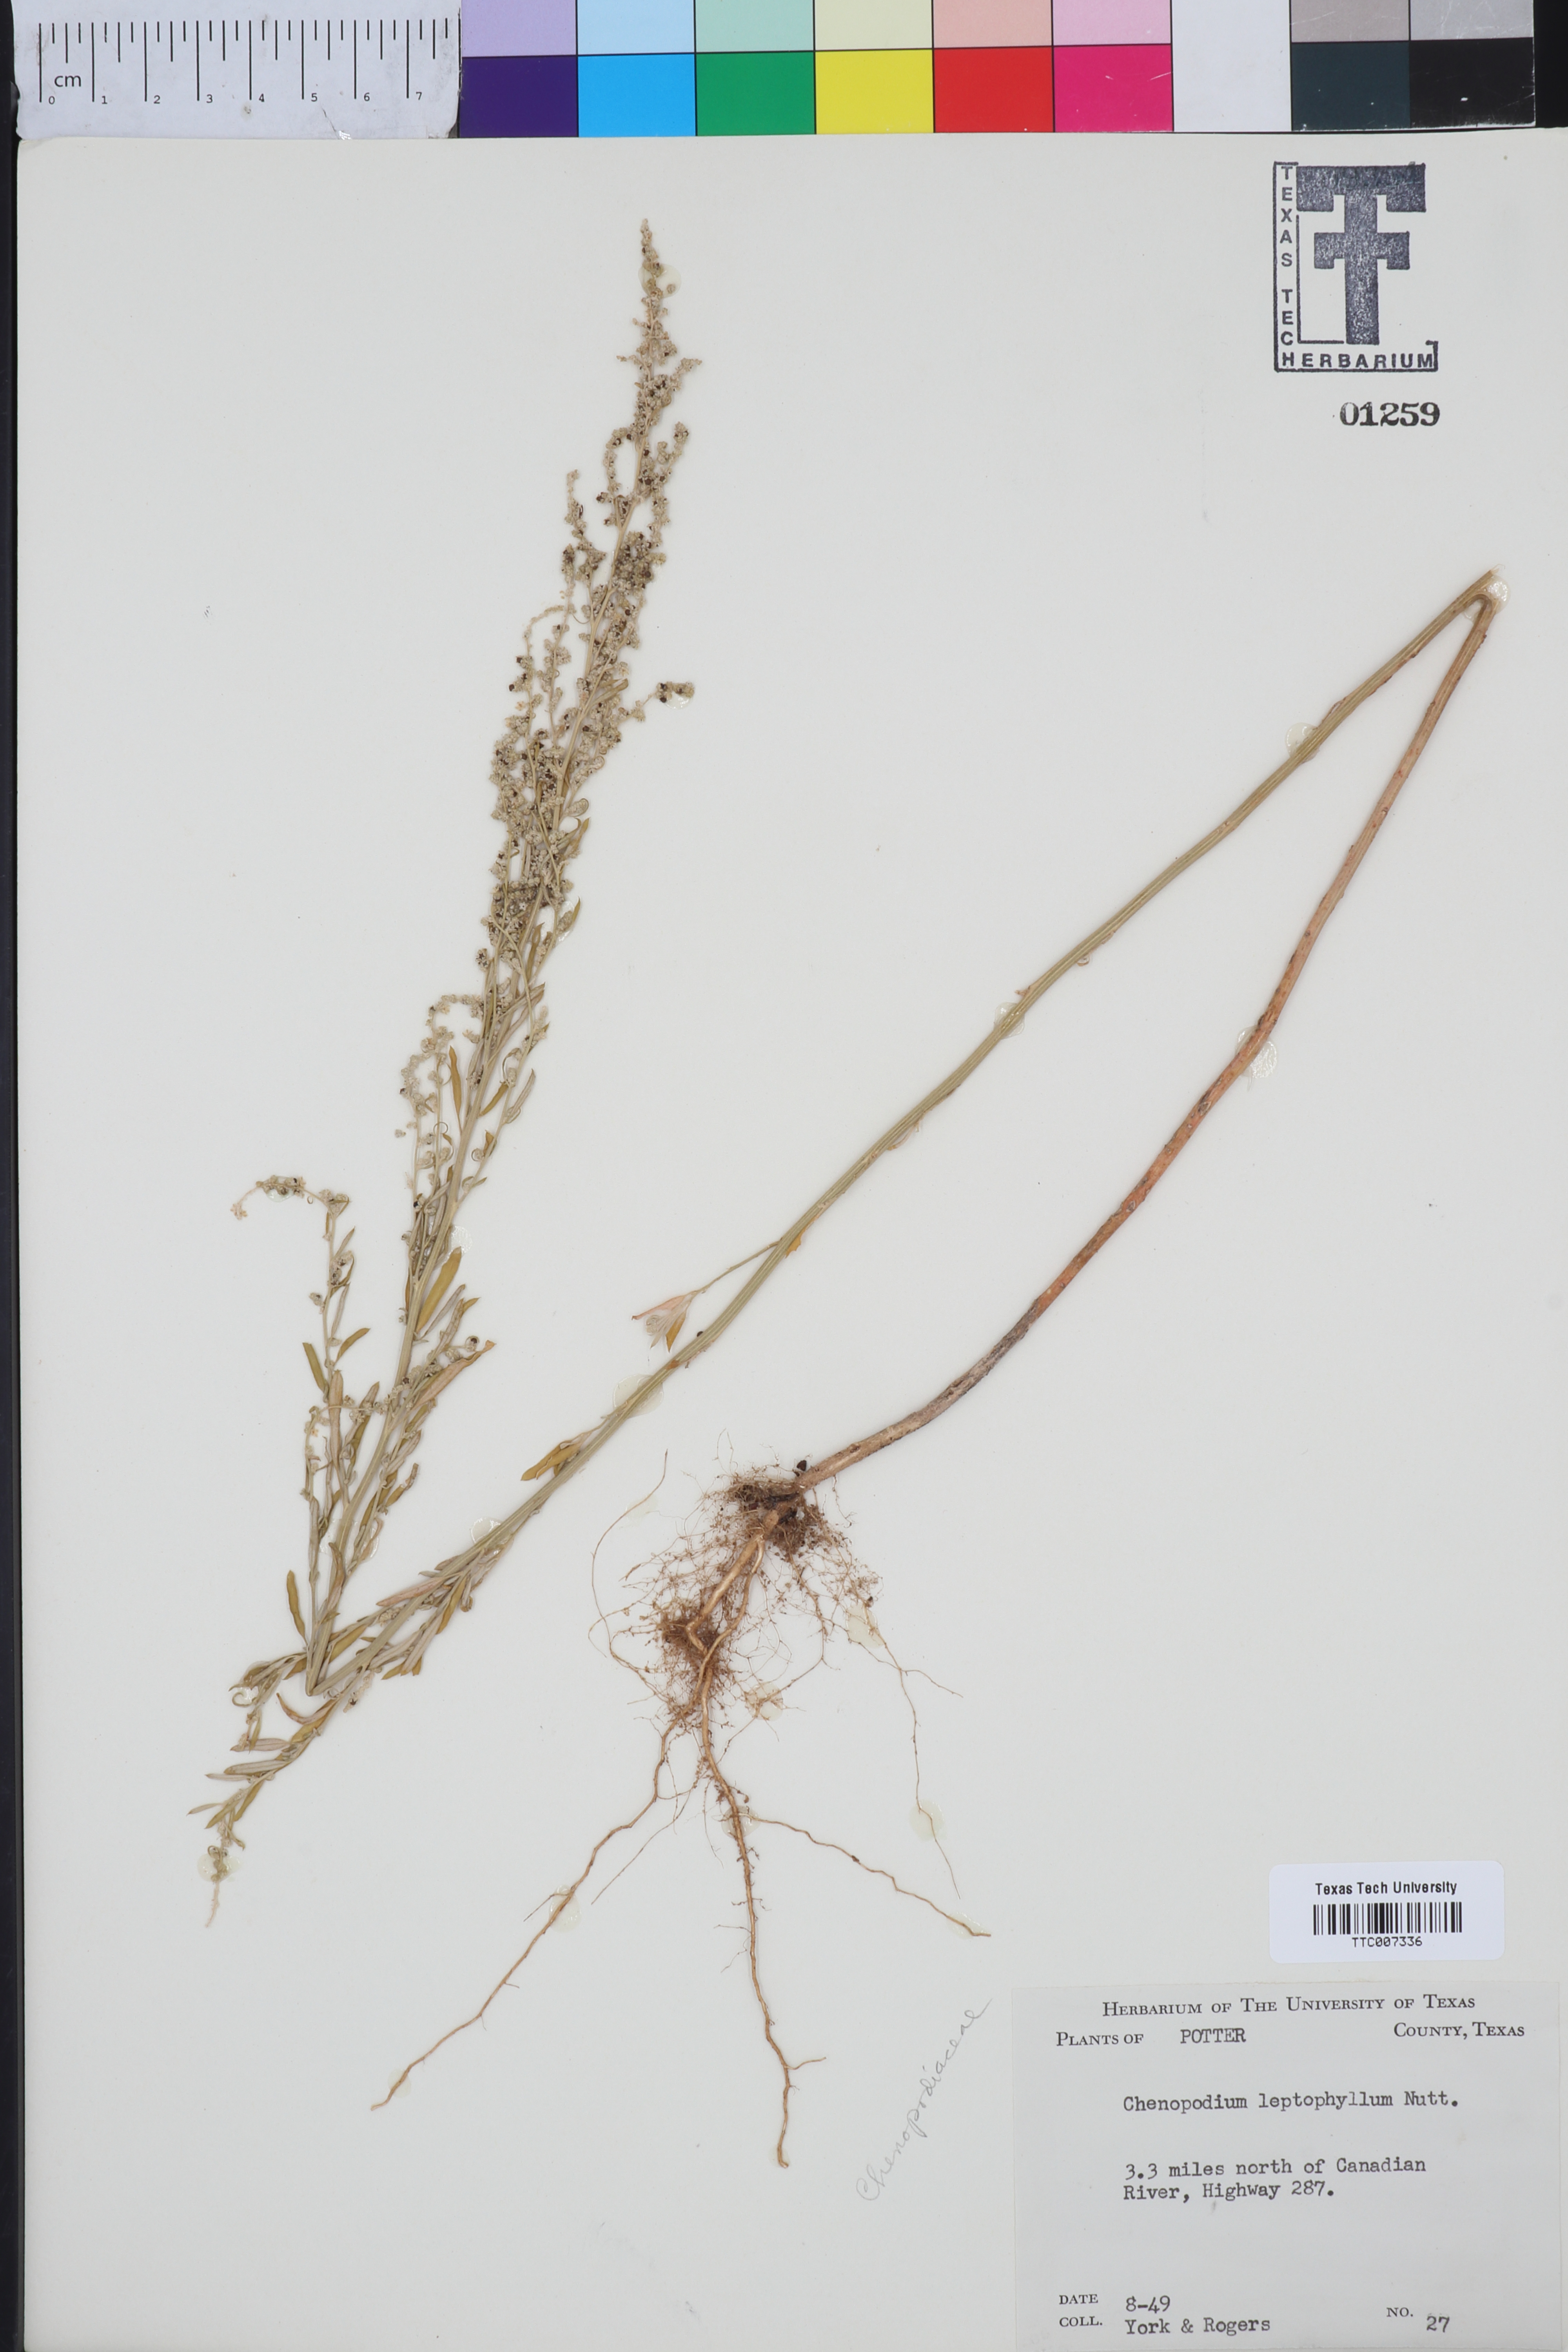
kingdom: Plantae
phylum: Tracheophyta
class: Magnoliopsida
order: Caryophyllales
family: Amaranthaceae
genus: Chenopodium
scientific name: Chenopodium leptophyllum
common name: Narrow-leaf goosefoot
